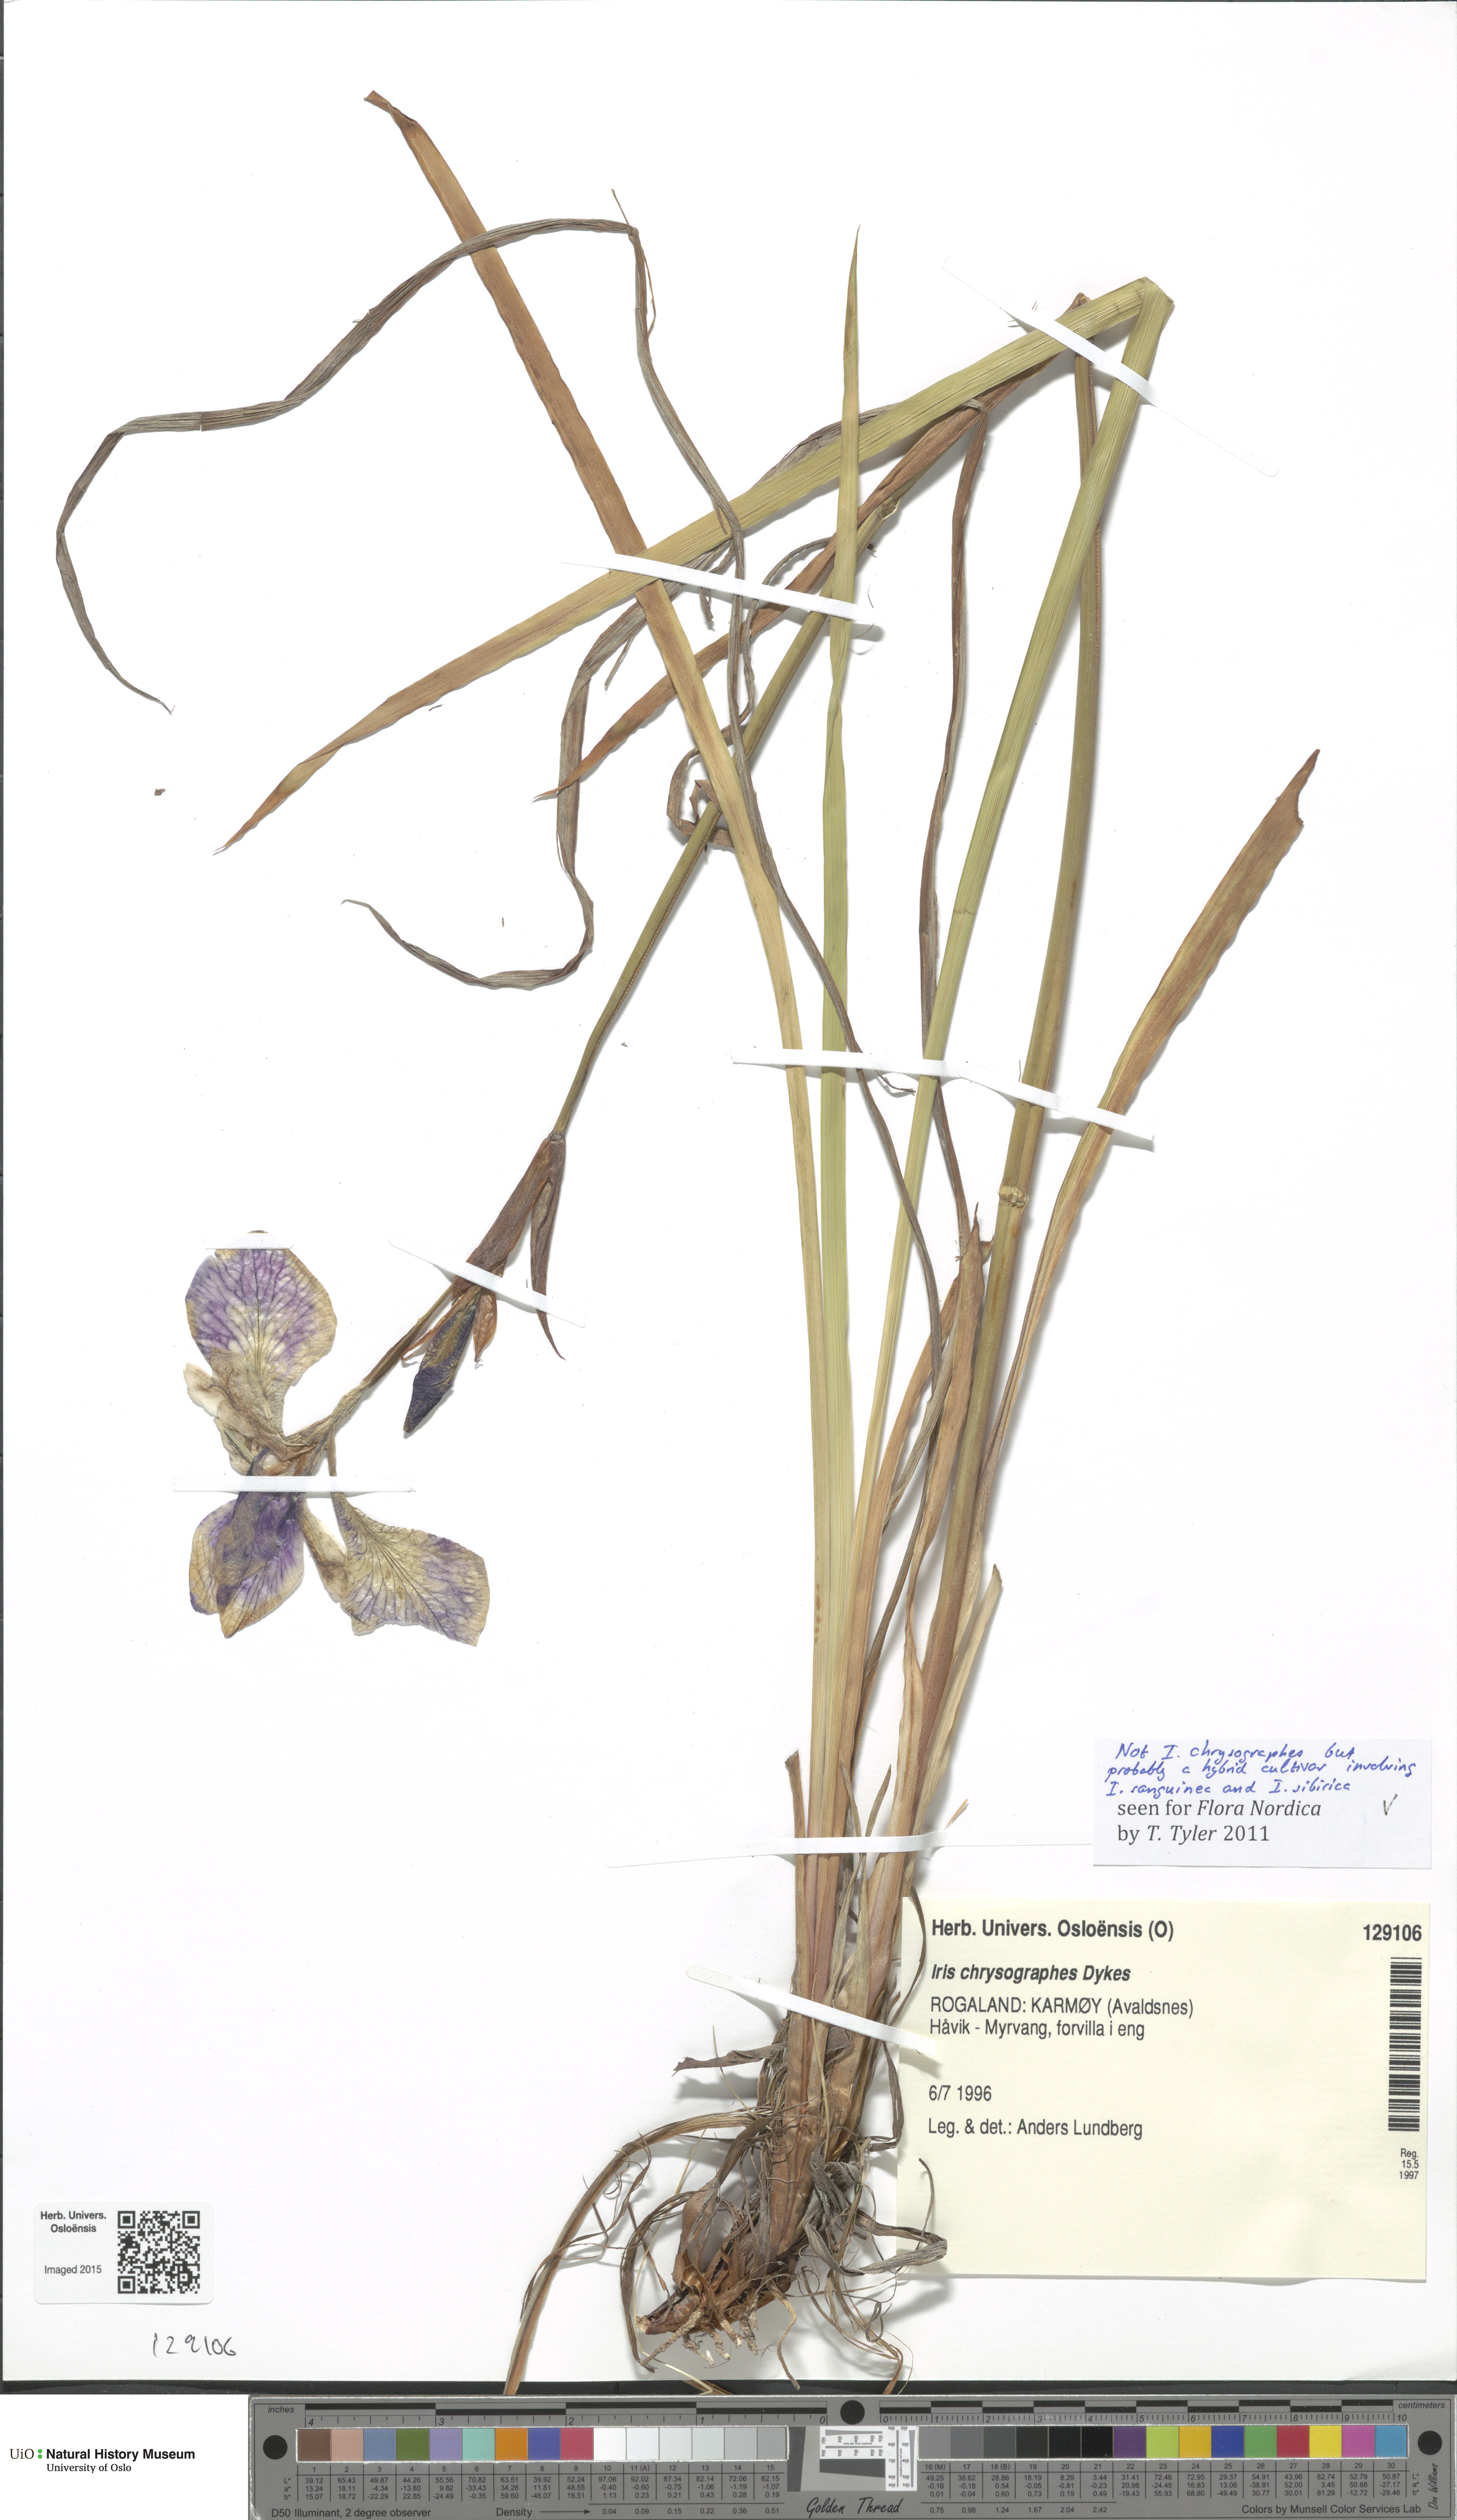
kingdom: Plantae
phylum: Tracheophyta
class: Liliopsida
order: Asparagales
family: Iridaceae
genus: Iris
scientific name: Iris
